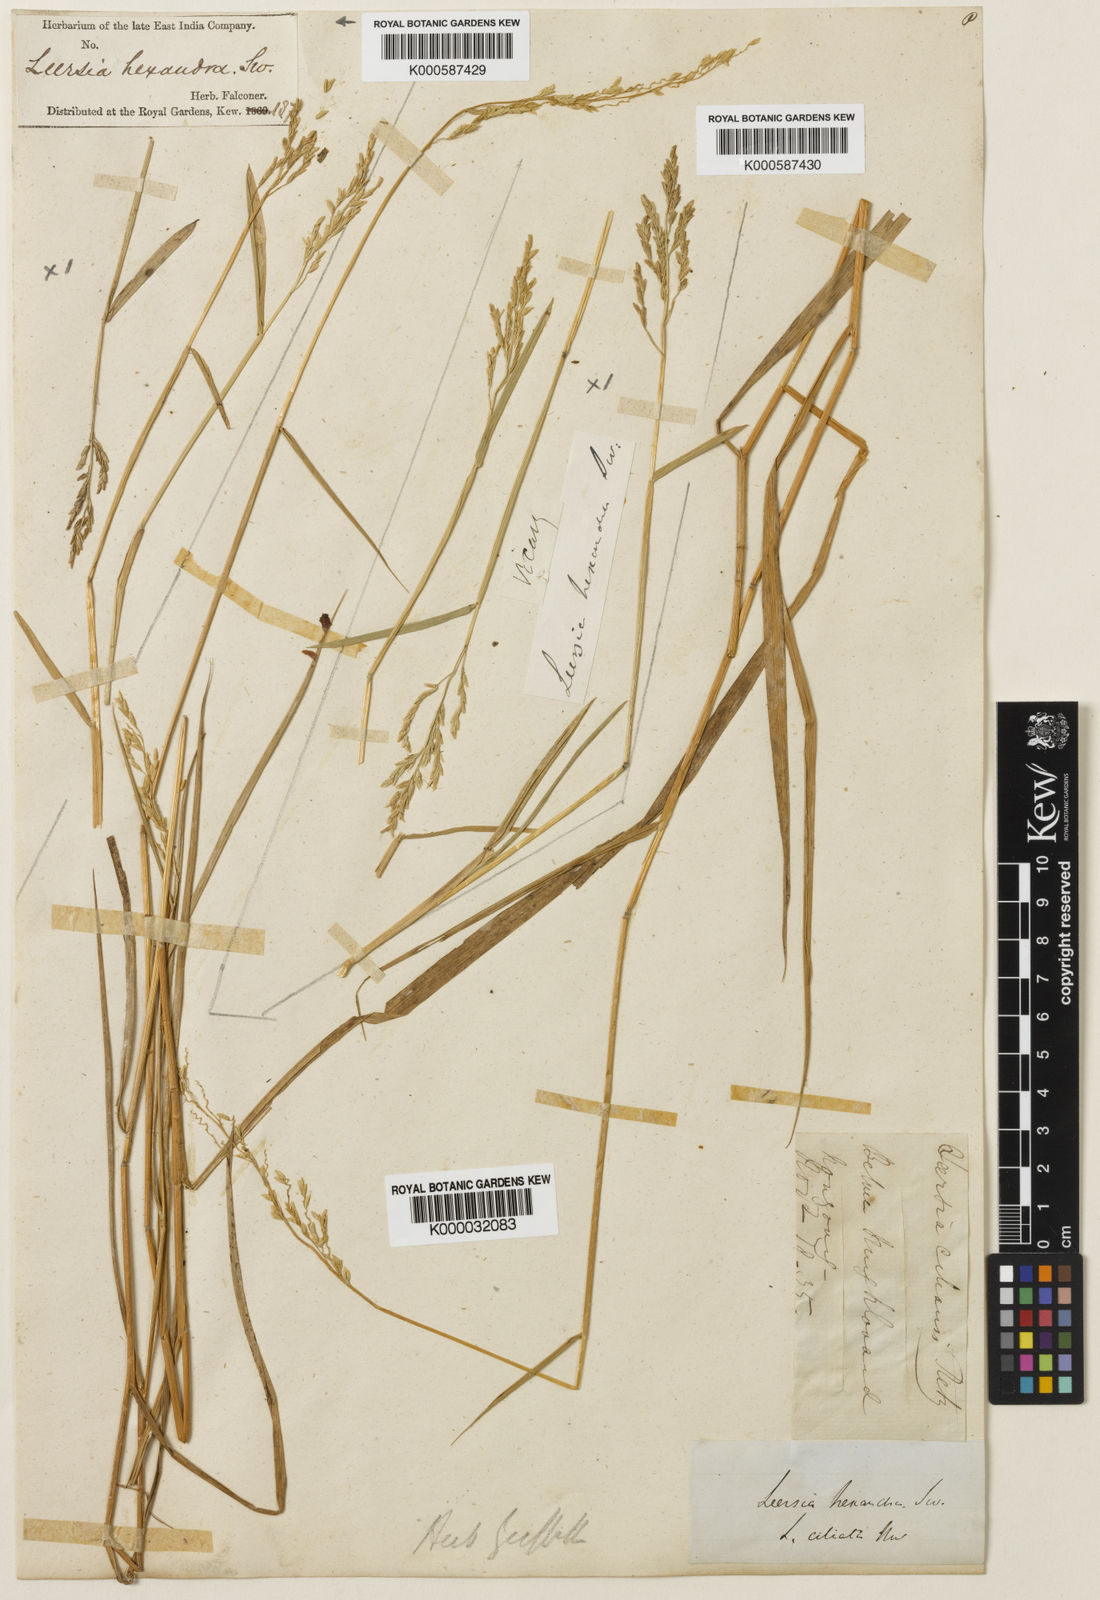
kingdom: Plantae
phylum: Tracheophyta
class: Liliopsida
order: Poales
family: Poaceae
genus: Leersia
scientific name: Leersia hexandra
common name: Southern cut grass
